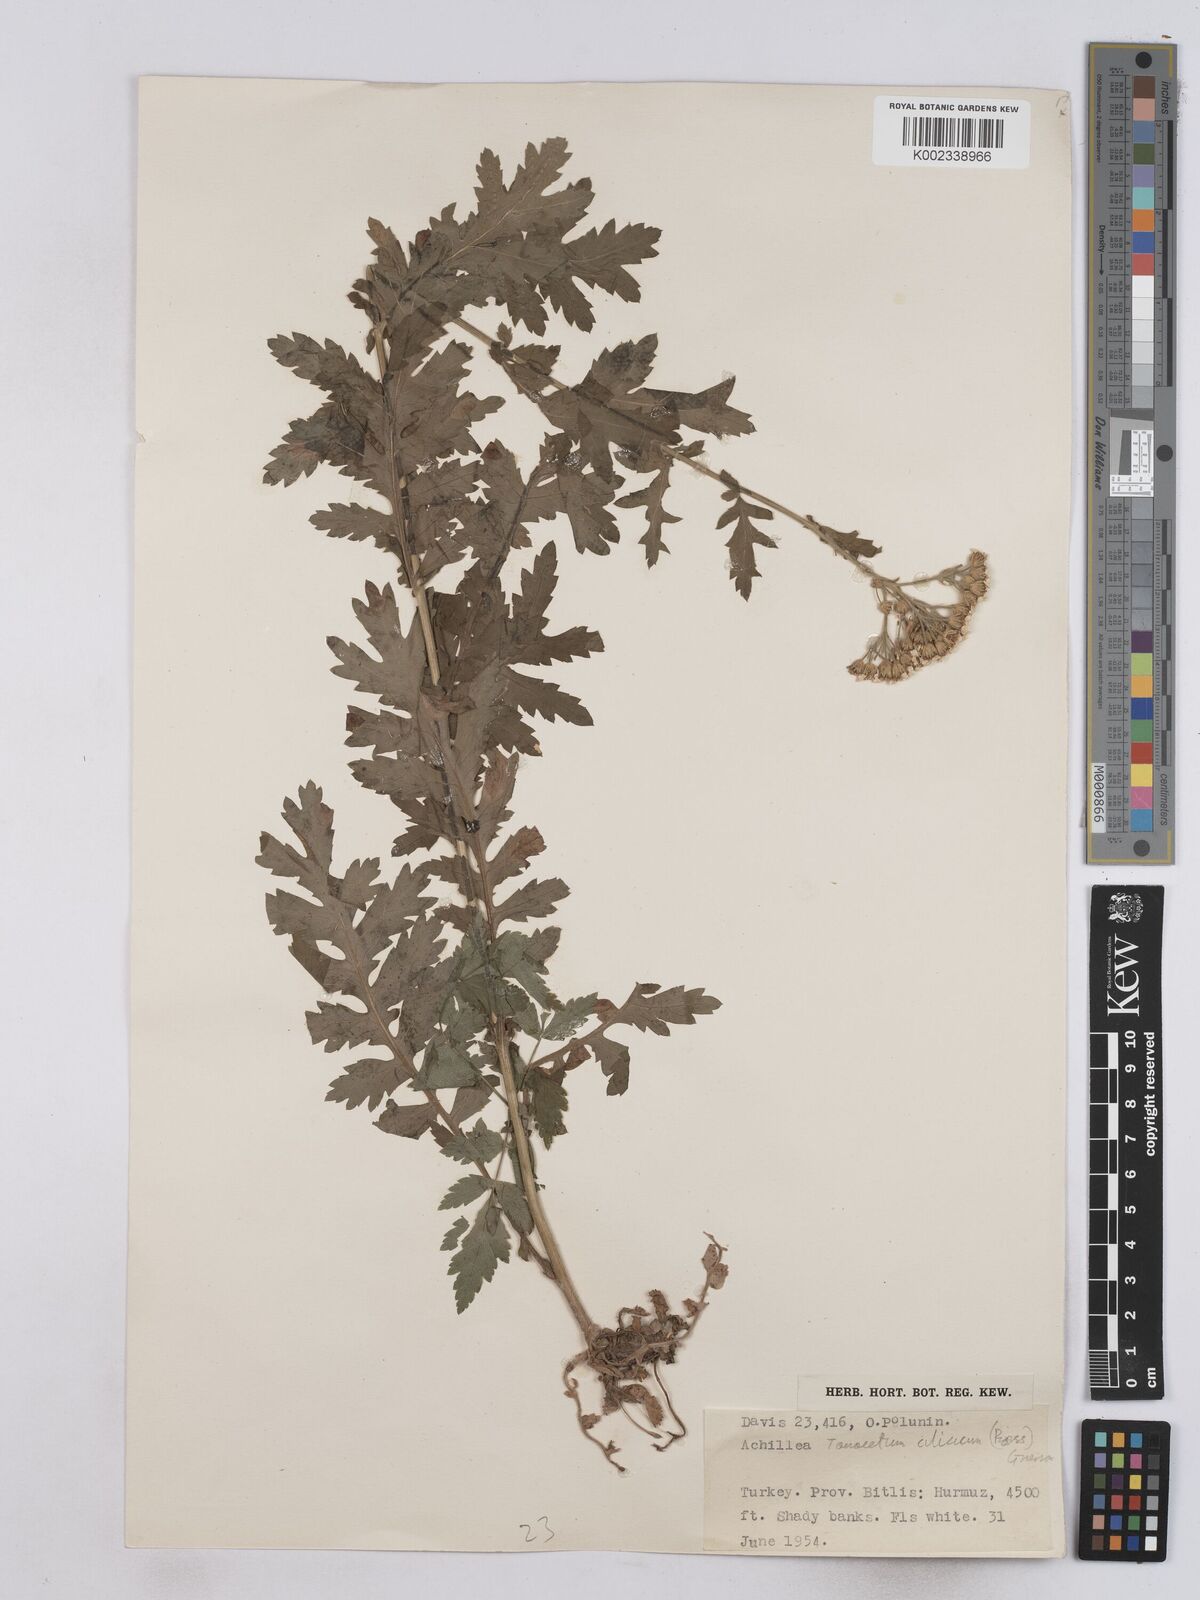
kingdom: Plantae
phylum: Tracheophyta
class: Magnoliopsida
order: Asterales
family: Asteraceae
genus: Tanacetum
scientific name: Tanacetum cilicicum
